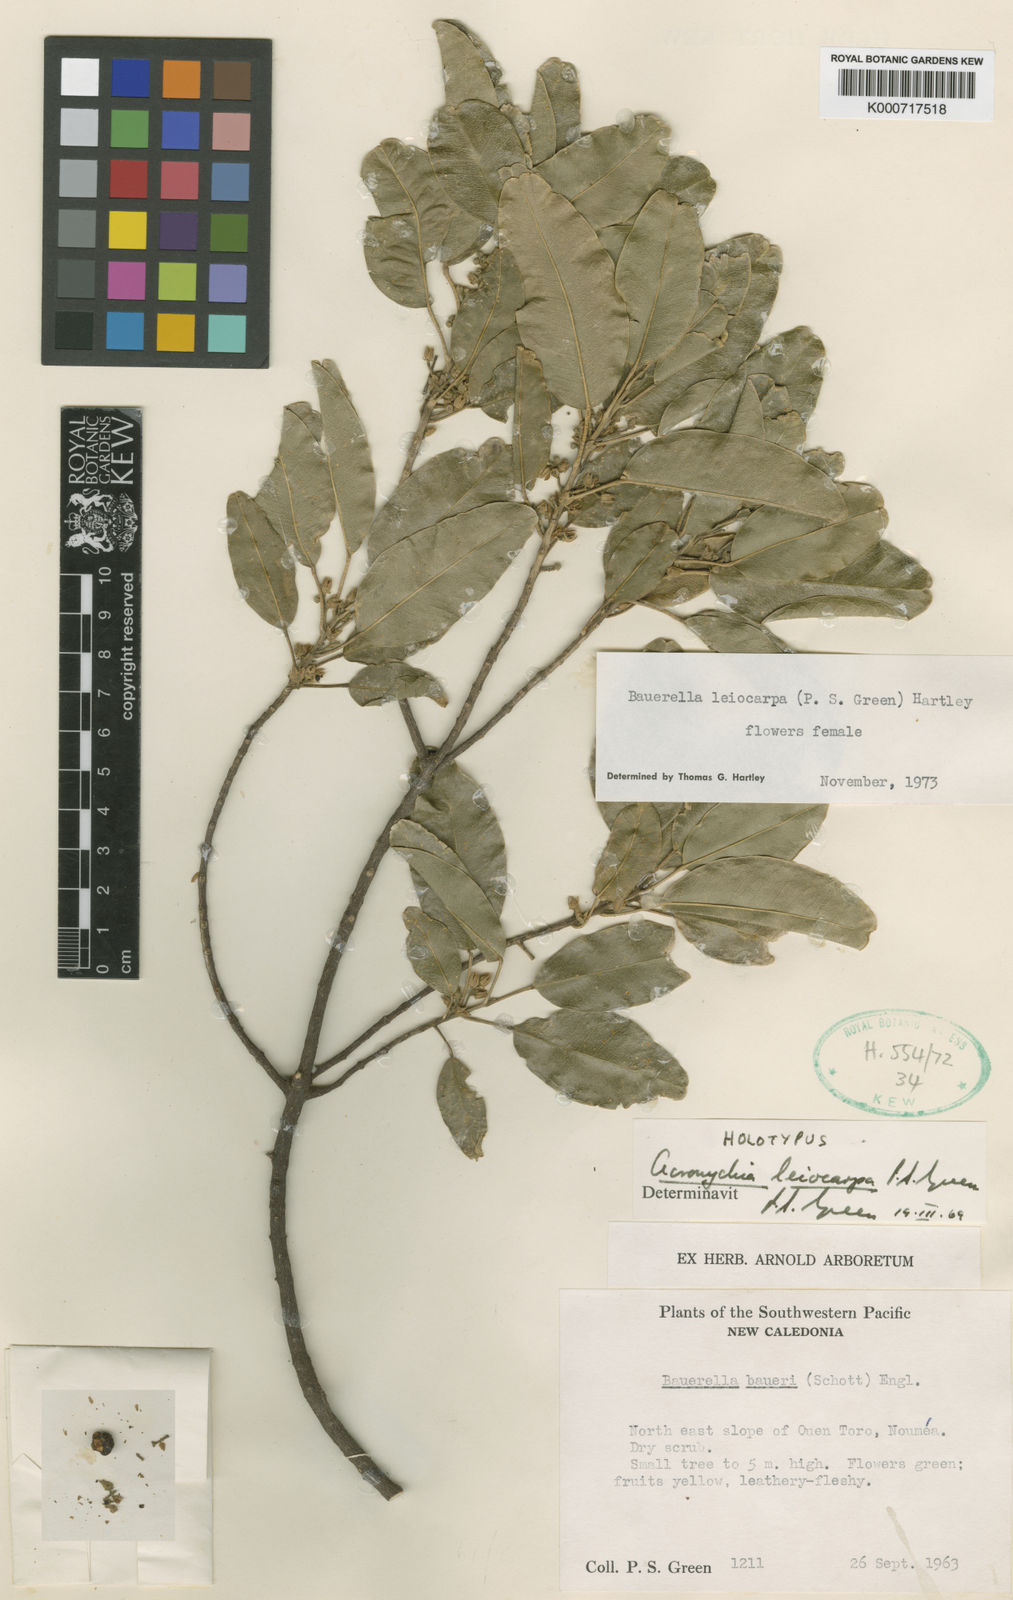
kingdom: Plantae
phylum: Tracheophyta
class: Magnoliopsida
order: Sapindales
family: Rutaceae
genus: Sarcomelicope
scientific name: Sarcomelicope leiocarpa
